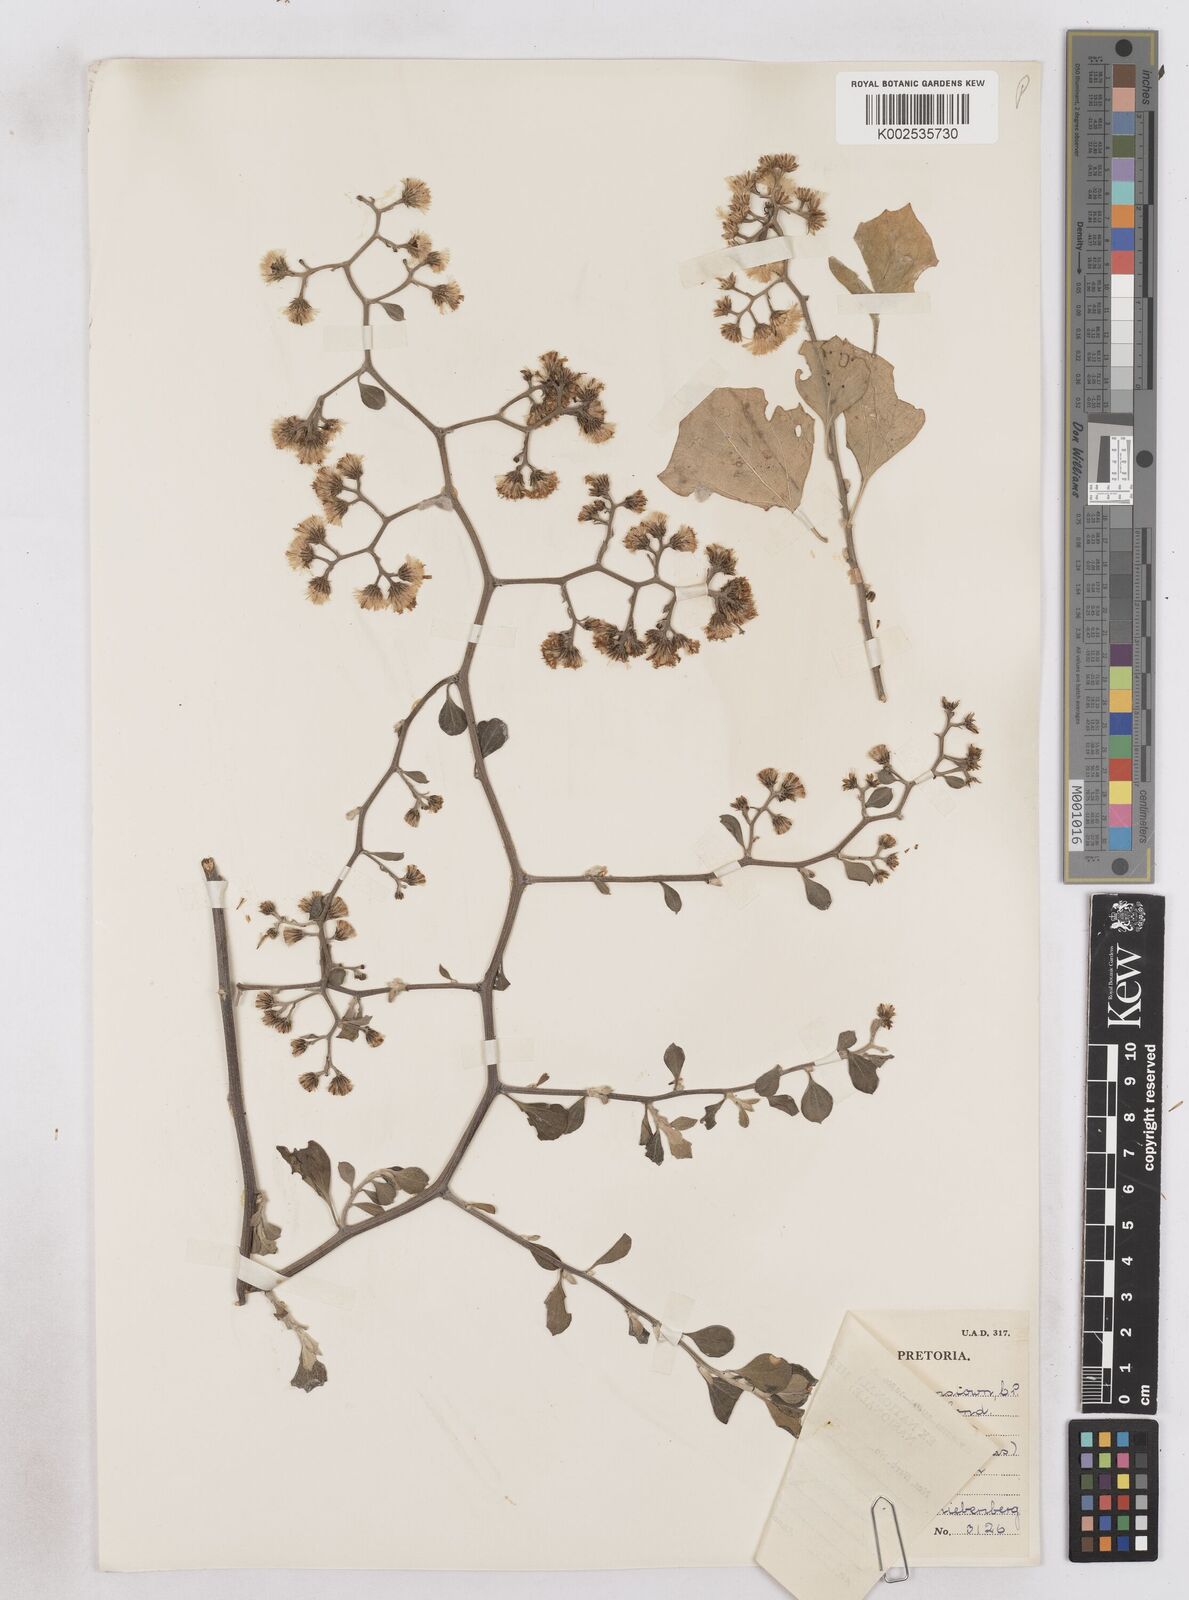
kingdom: Plantae
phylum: Tracheophyta
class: Magnoliopsida
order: Asterales
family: Asteraceae
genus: Distephanus
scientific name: Distephanus anisochaetoides
